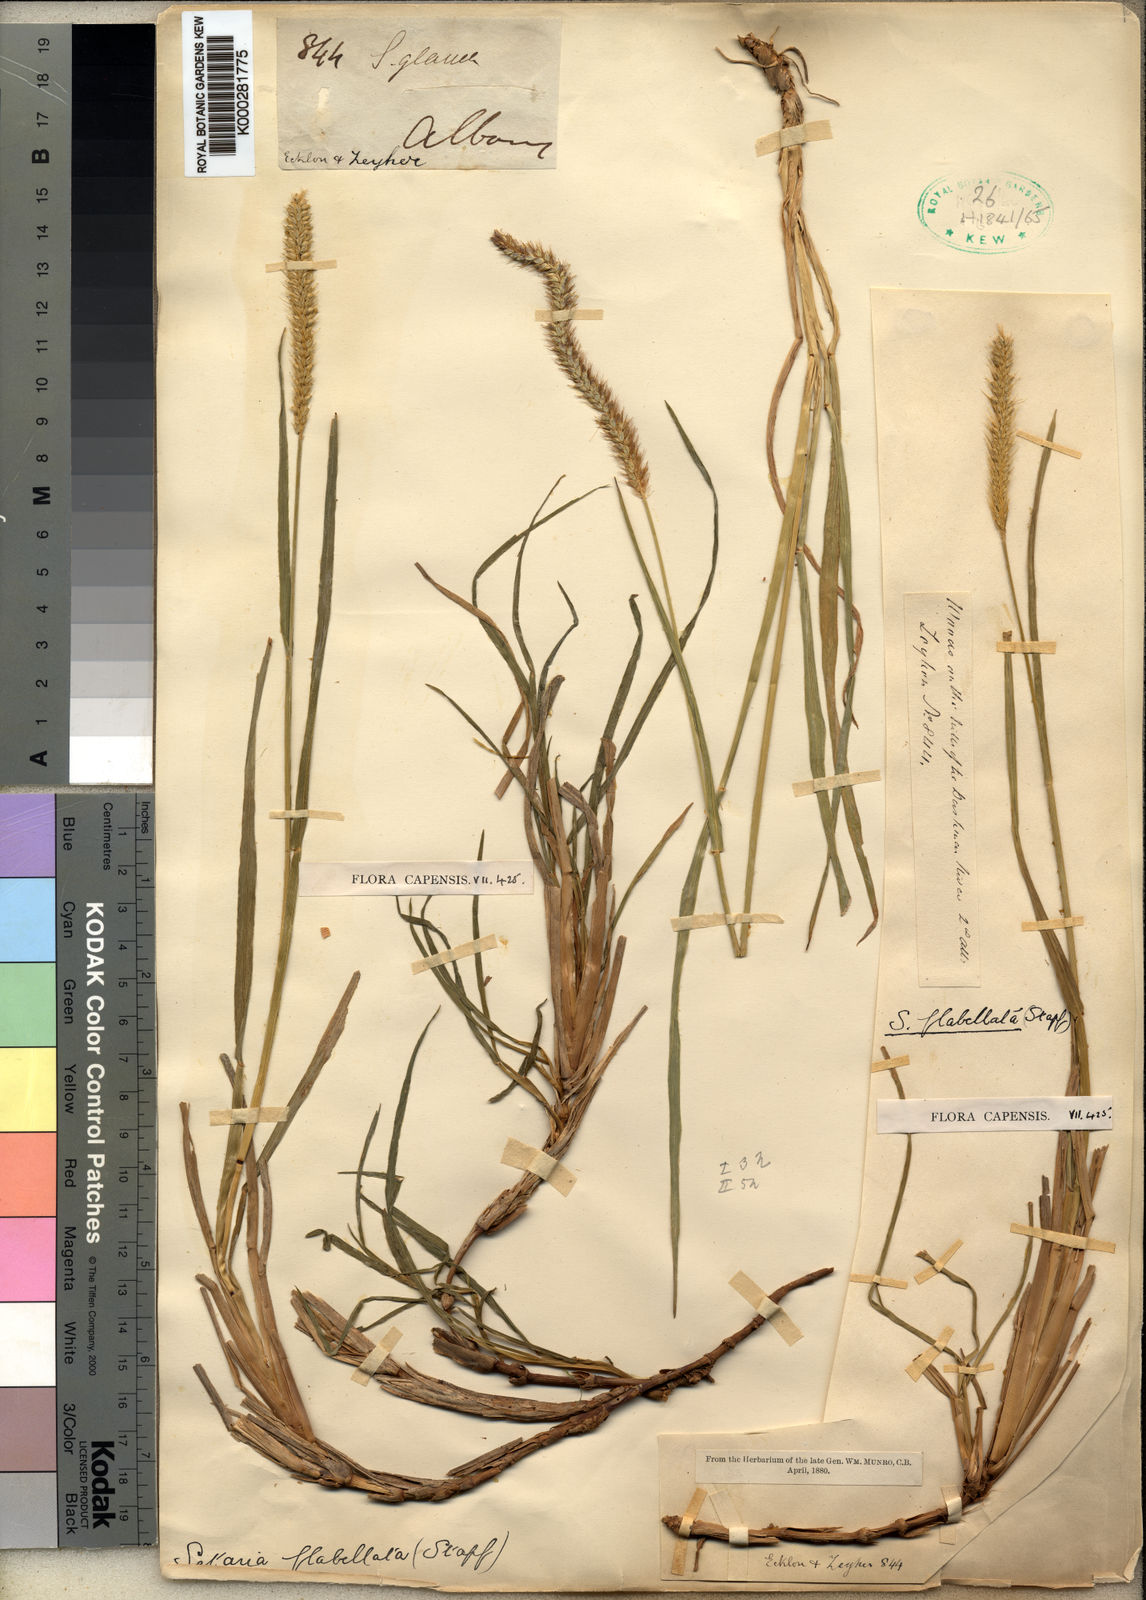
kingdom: Plantae
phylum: Tracheophyta
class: Liliopsida
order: Poales
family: Poaceae
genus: Setaria
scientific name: Setaria sphacelata
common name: African bristlegrass
